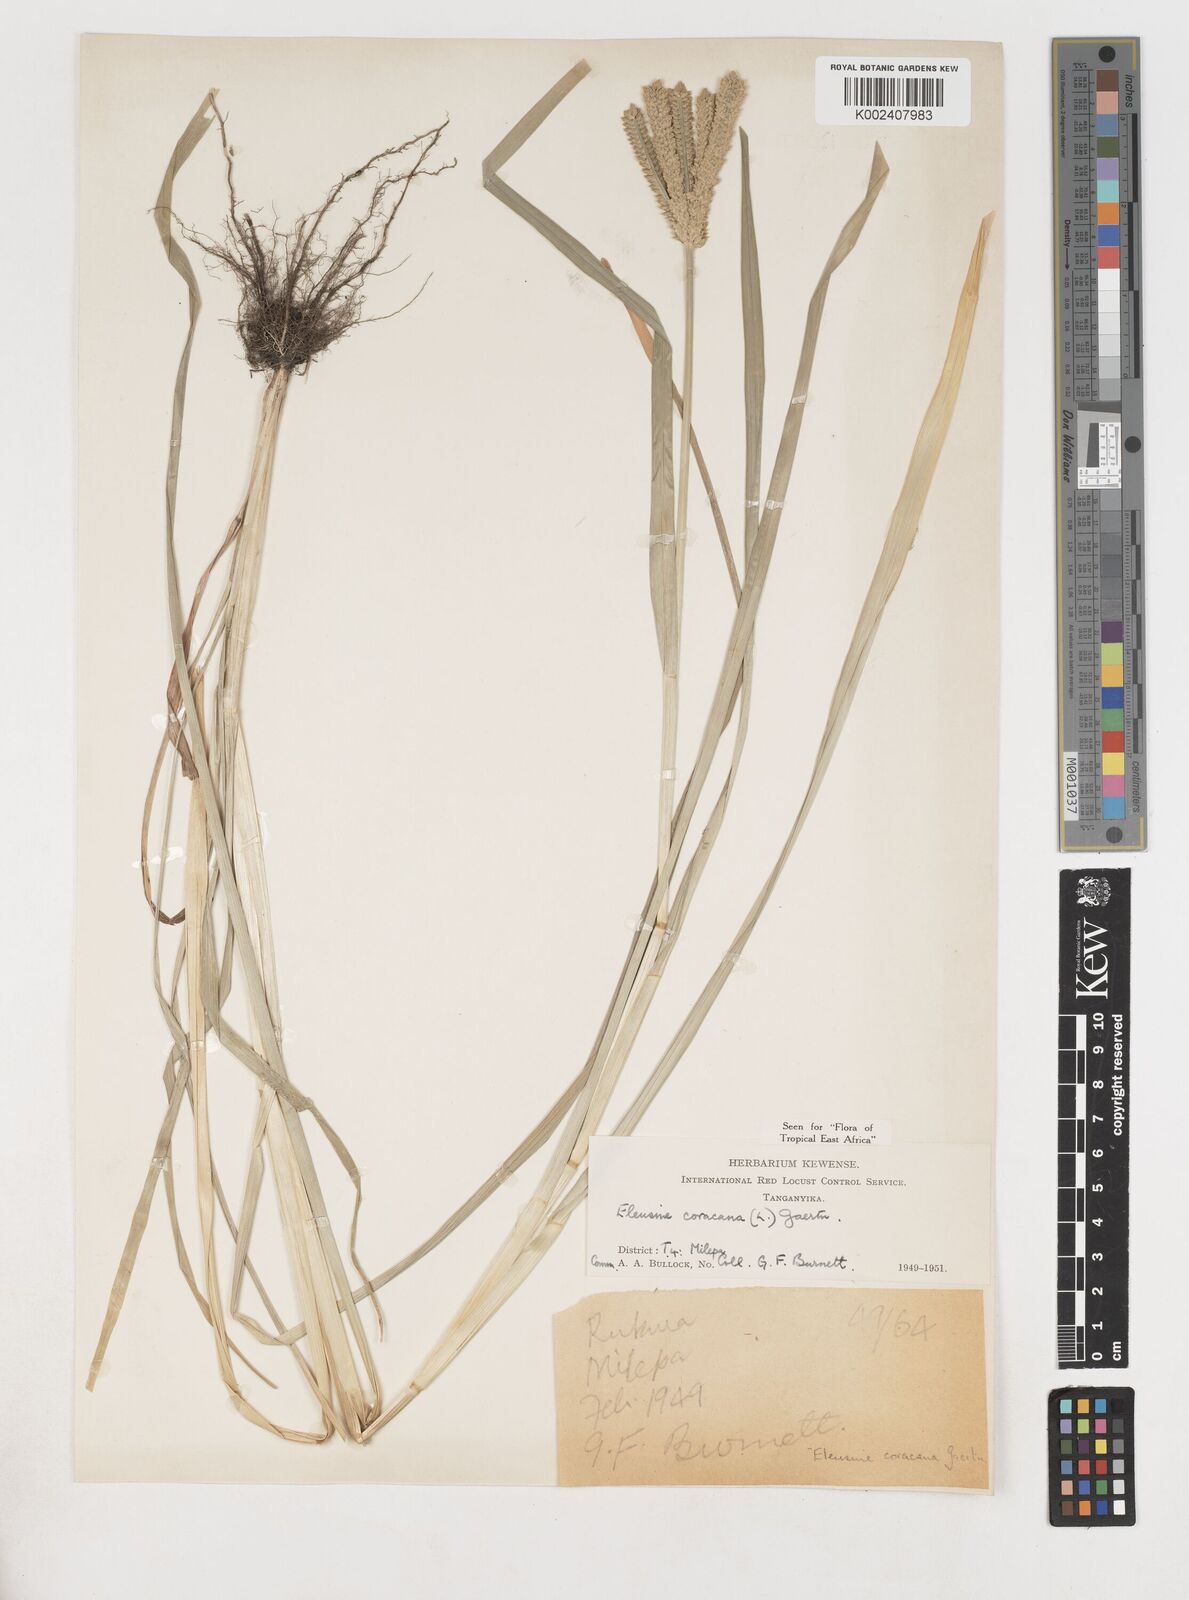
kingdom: Plantae
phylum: Tracheophyta
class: Liliopsida
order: Poales
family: Poaceae
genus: Eleusine
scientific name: Eleusine coracana
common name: Finger millet
